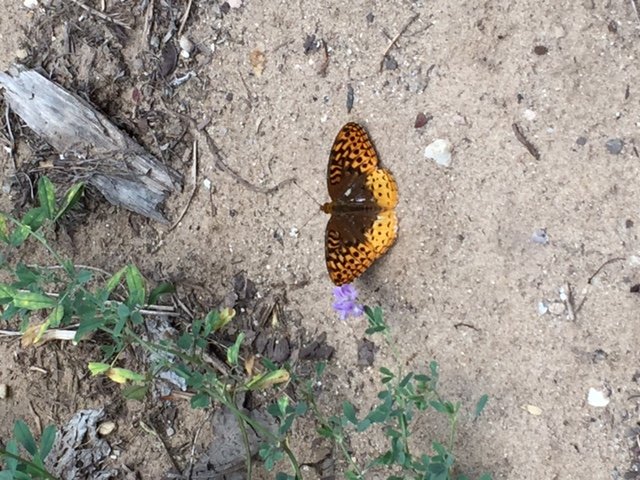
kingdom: Animalia
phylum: Arthropoda
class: Insecta
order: Lepidoptera
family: Nymphalidae
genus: Speyeria
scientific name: Speyeria cybele
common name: Great Spangled Fritillary
